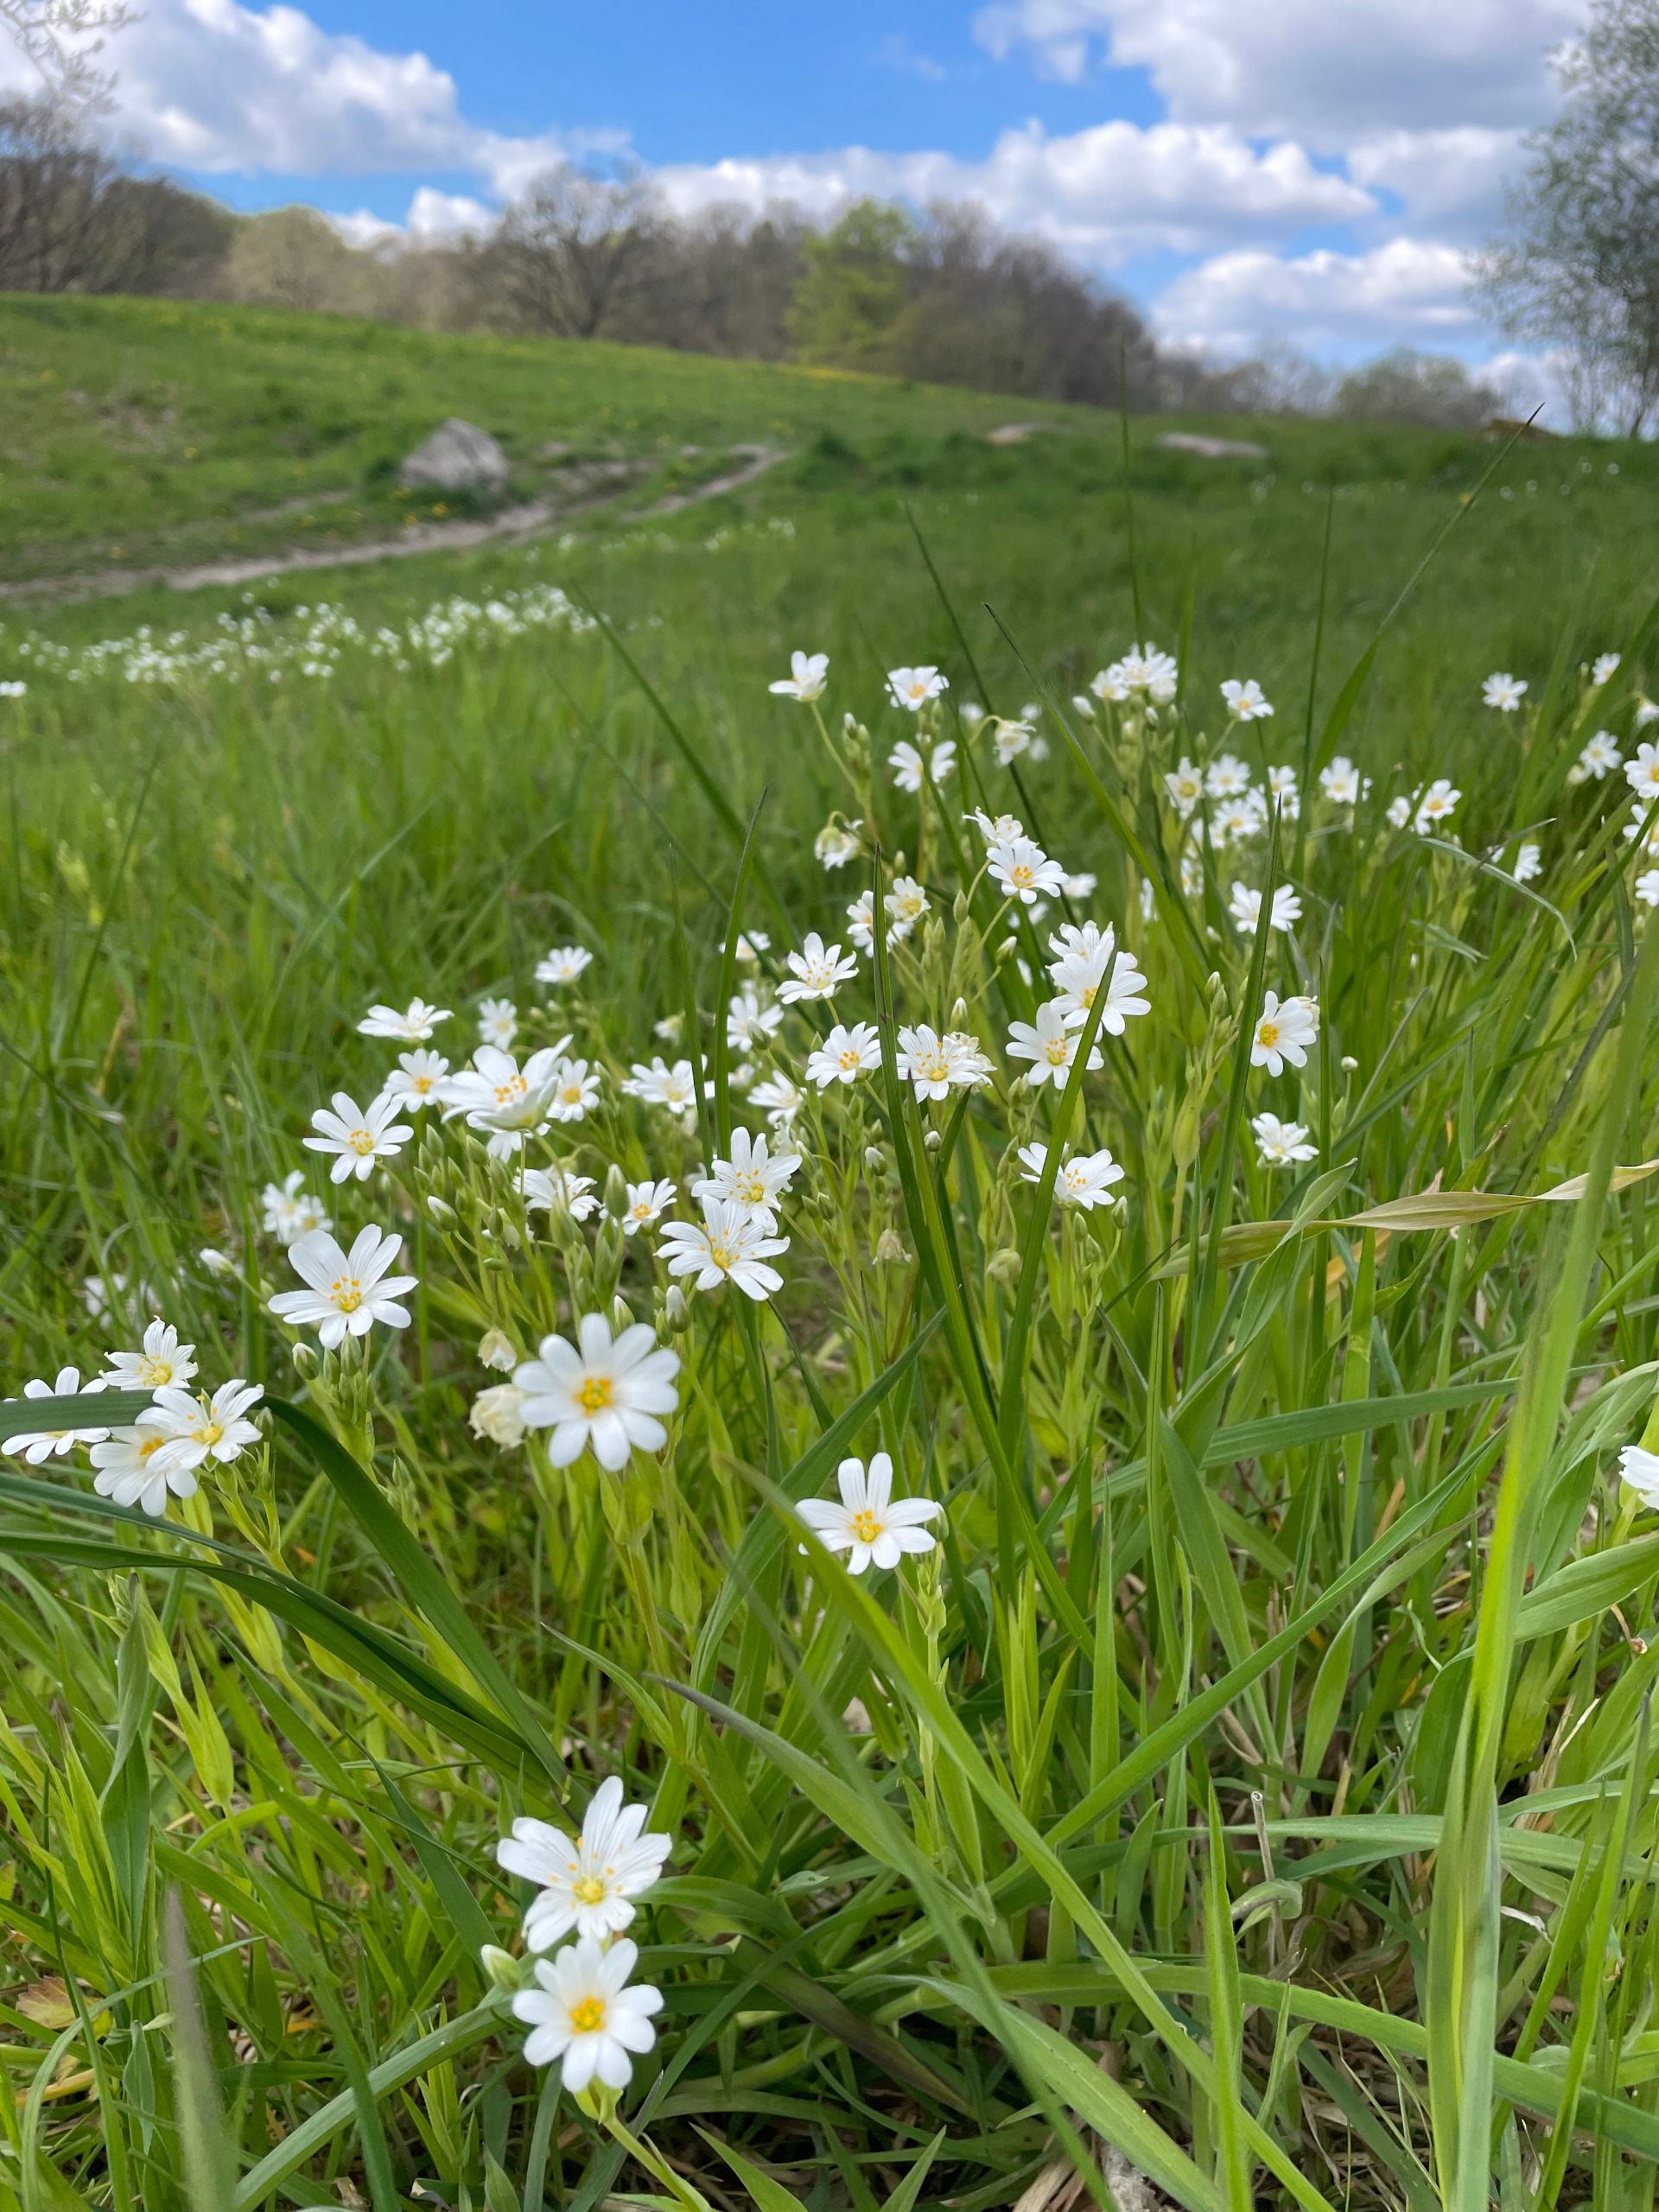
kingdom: Plantae
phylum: Tracheophyta
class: Magnoliopsida
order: Caryophyllales
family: Caryophyllaceae
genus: Rabelera
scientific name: Rabelera holostea
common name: Stor fladstjerne
